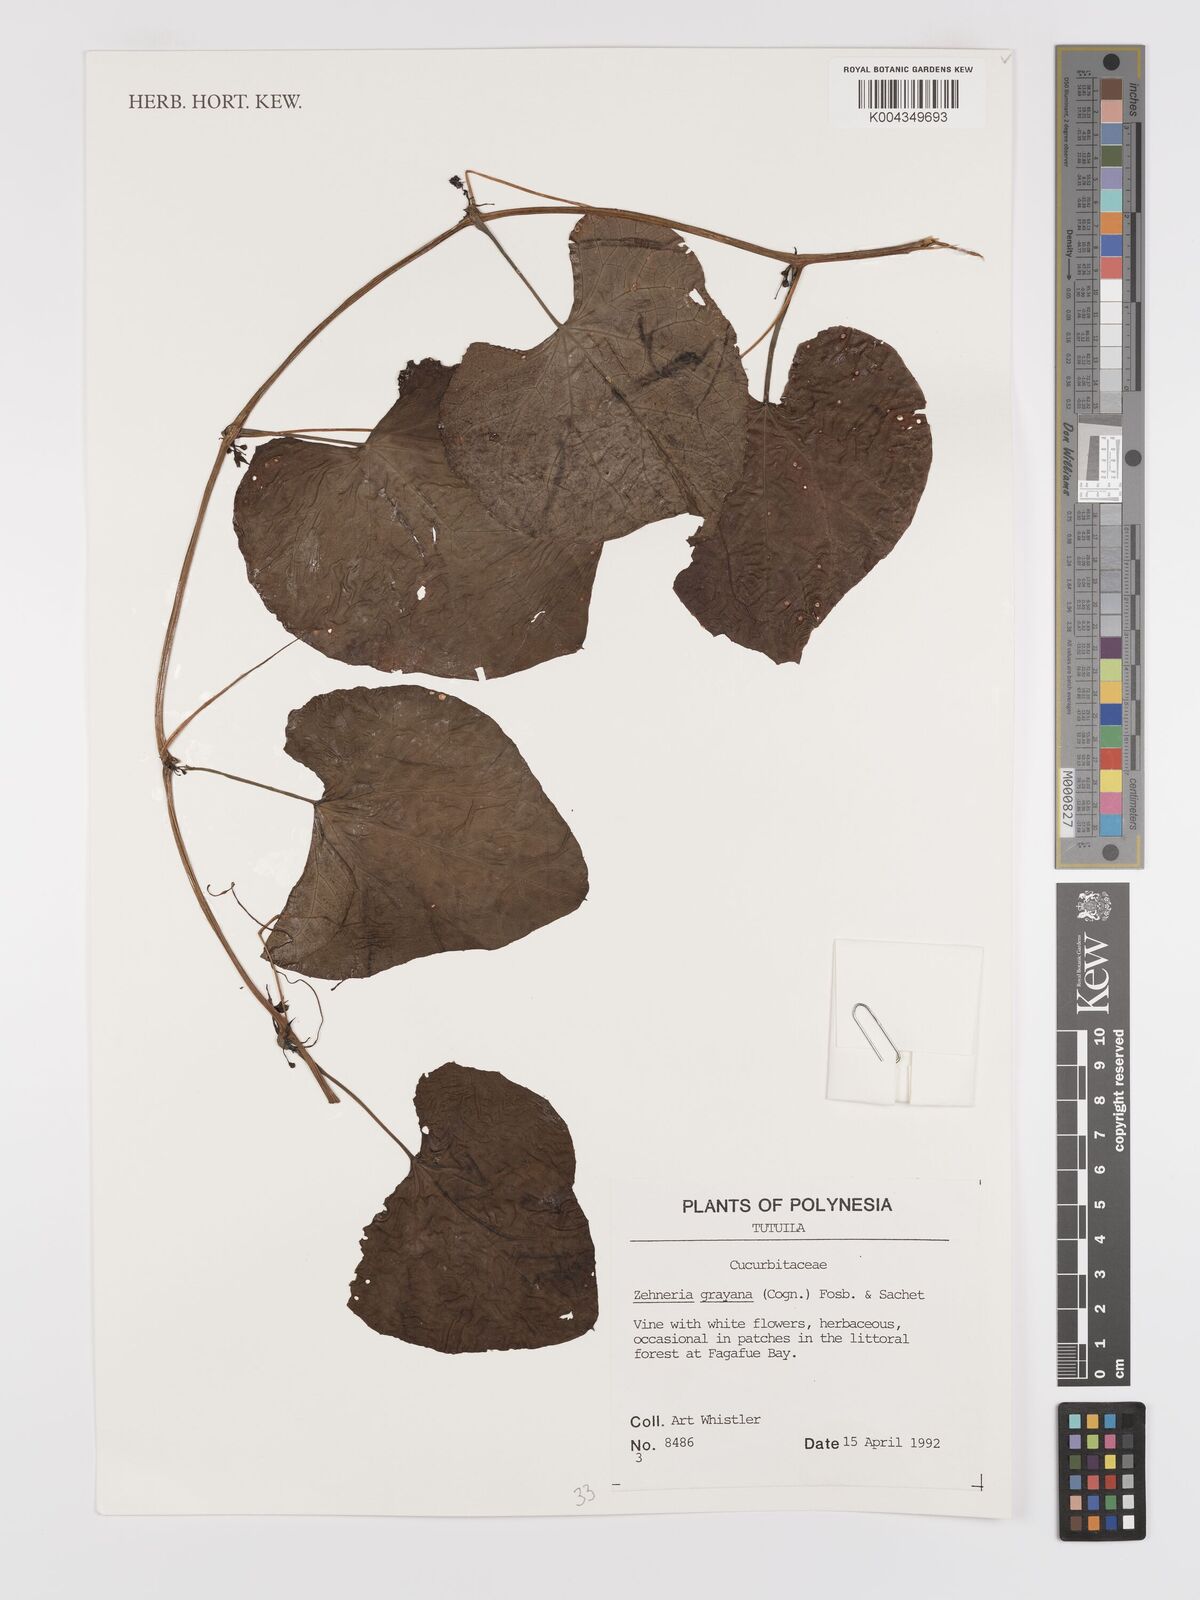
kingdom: Plantae
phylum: Tracheophyta
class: Magnoliopsida
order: Cucurbitales
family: Cucurbitaceae
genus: Zehneria
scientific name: Zehneria
